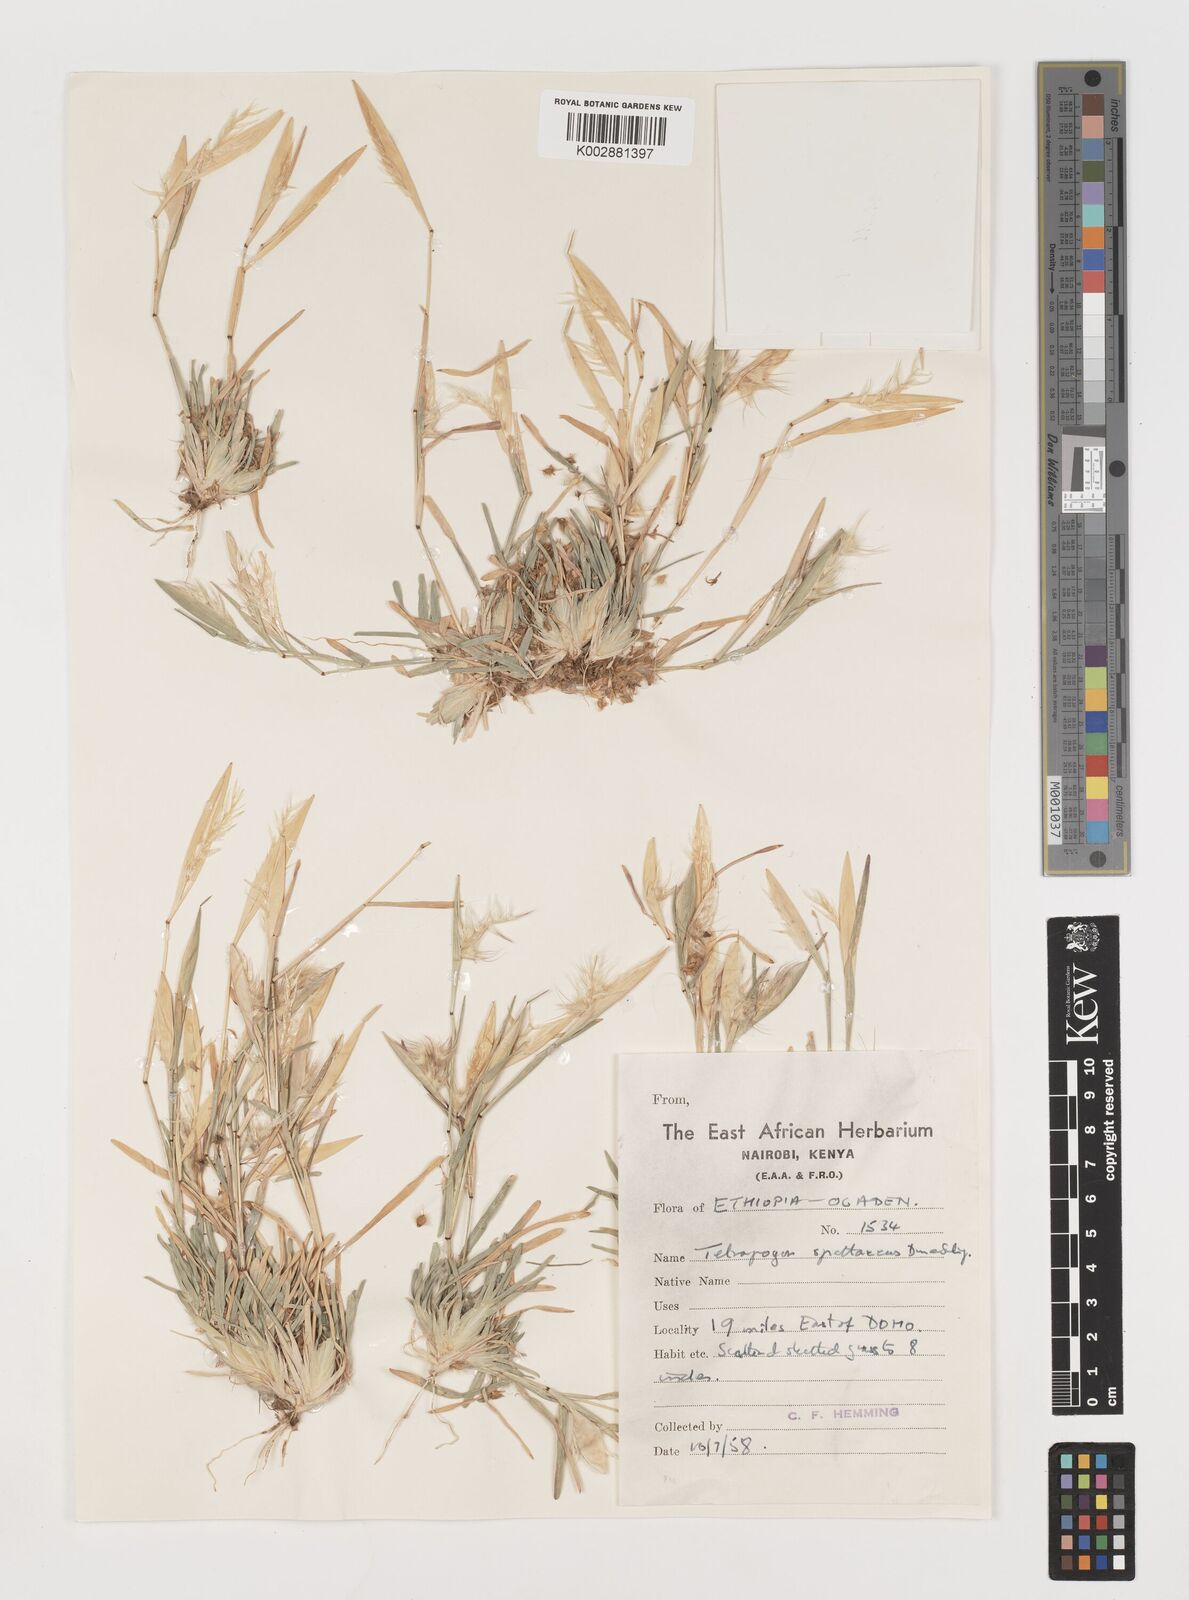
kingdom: Plantae
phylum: Tracheophyta
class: Liliopsida
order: Poales
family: Poaceae
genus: Tetrapogon
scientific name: Tetrapogon cenchriformis
